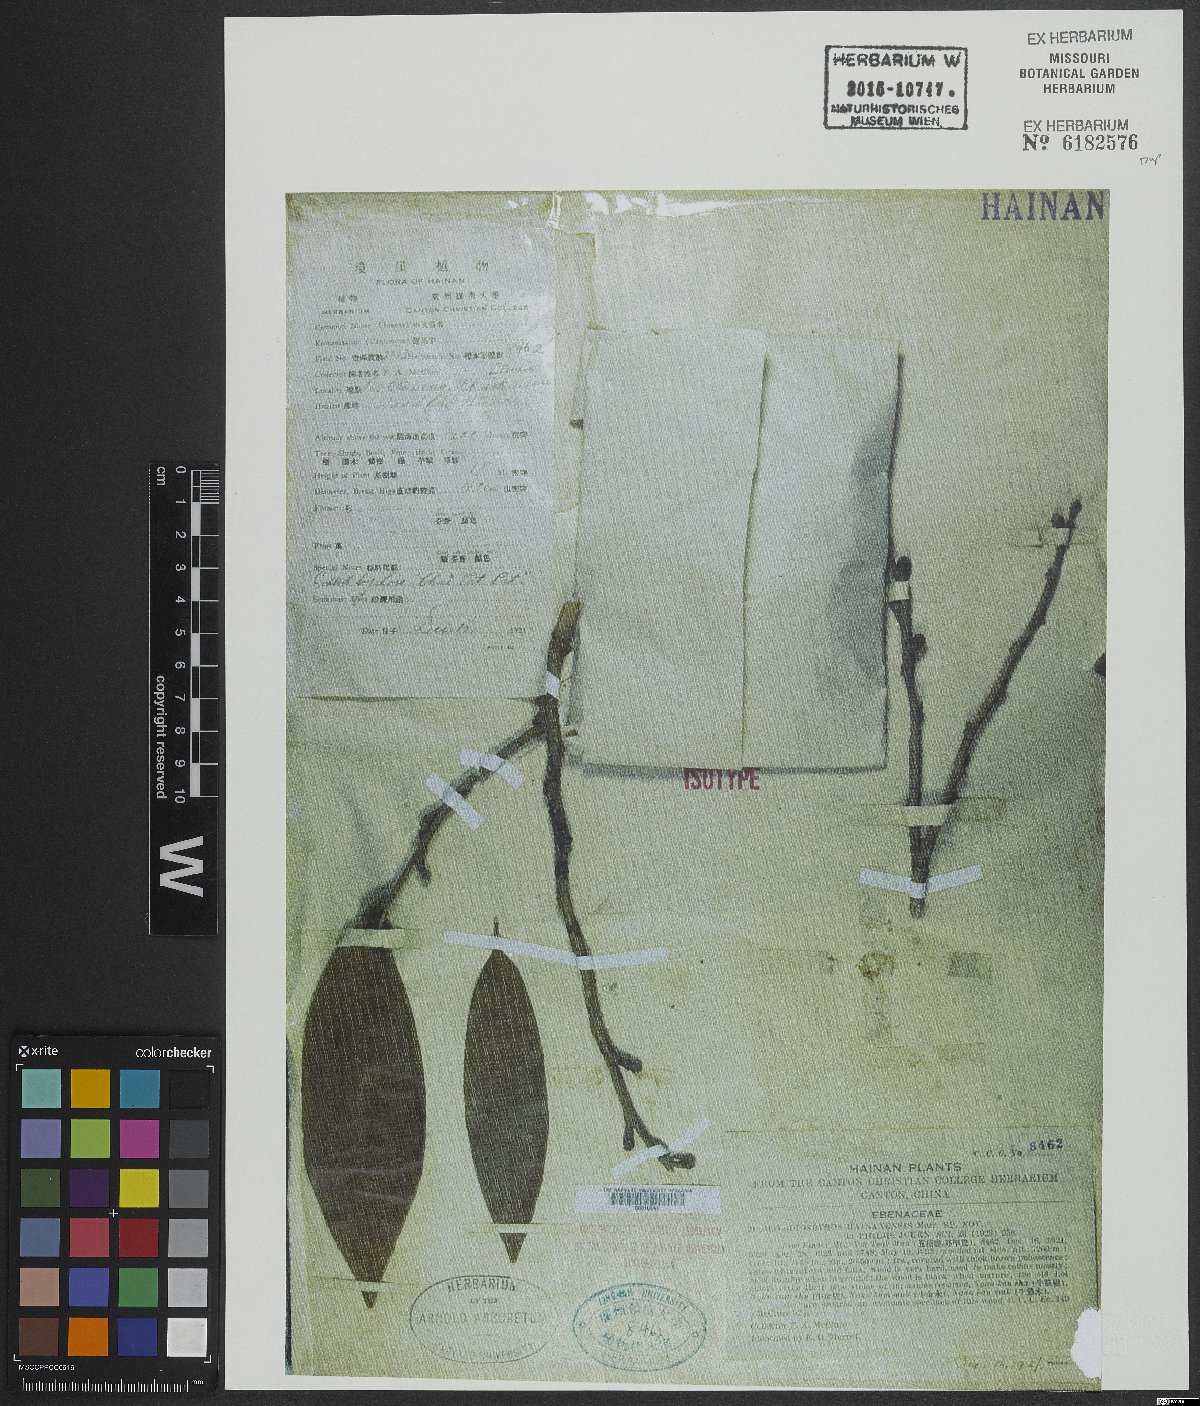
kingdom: Plantae
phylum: Tracheophyta
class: Magnoliopsida
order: Ericales
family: Ebenaceae
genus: Diospyros
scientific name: Diospyros hainanensis
